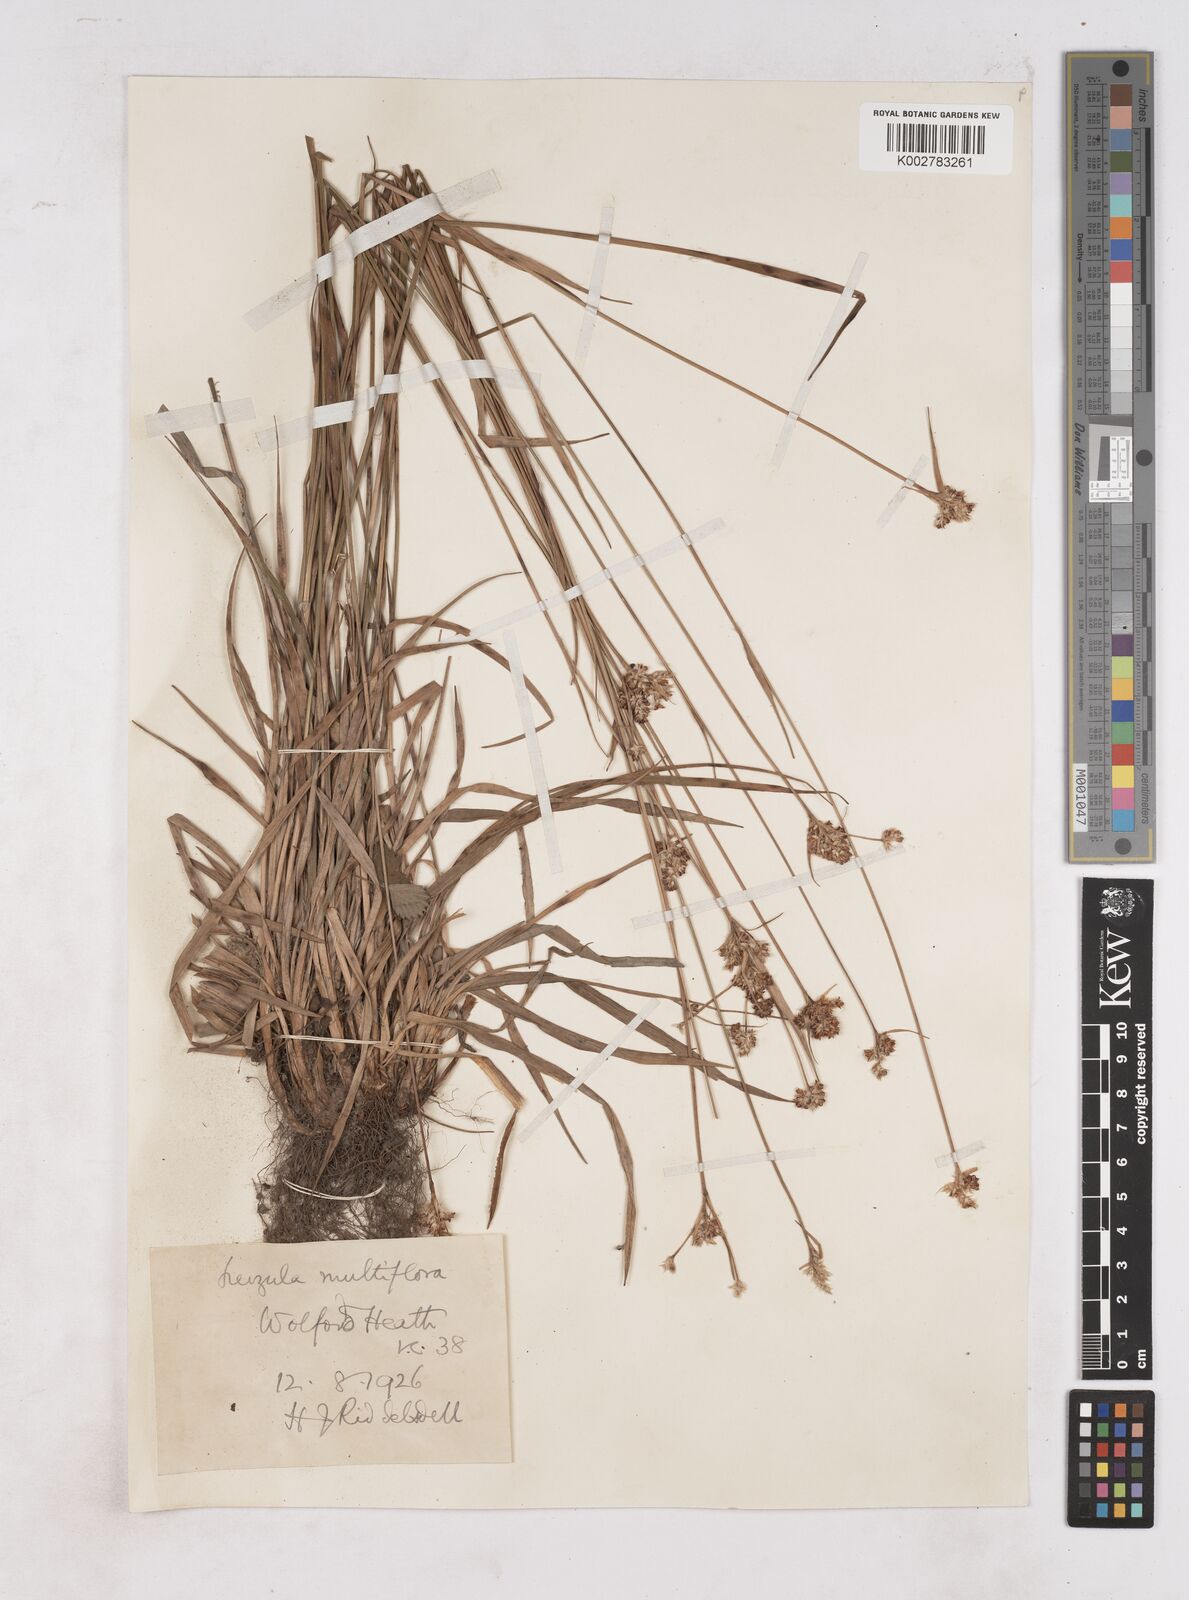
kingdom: Plantae
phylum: Tracheophyta
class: Liliopsida
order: Poales
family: Juncaceae
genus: Luzula
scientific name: Luzula multiflora
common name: Heath wood-rush
